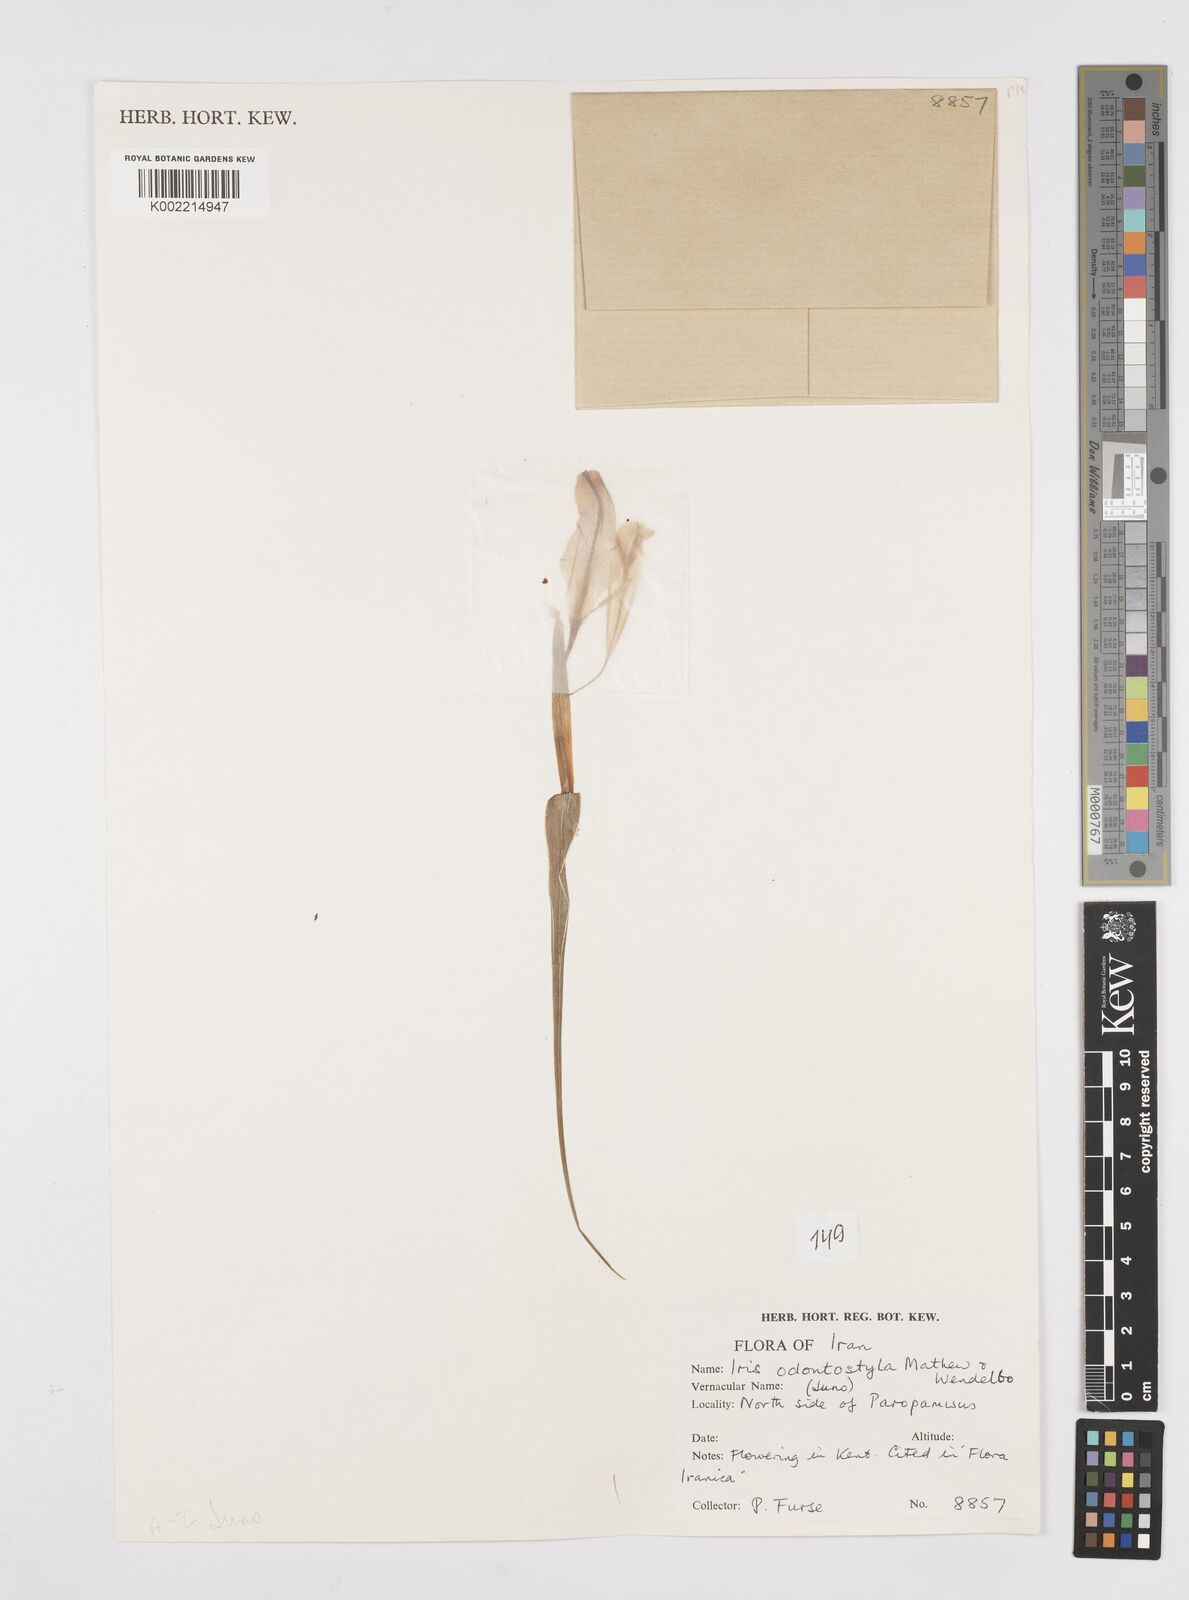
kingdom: Plantae
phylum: Tracheophyta
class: Liliopsida
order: Asparagales
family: Iridaceae
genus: Iris
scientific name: Iris odontostyla
